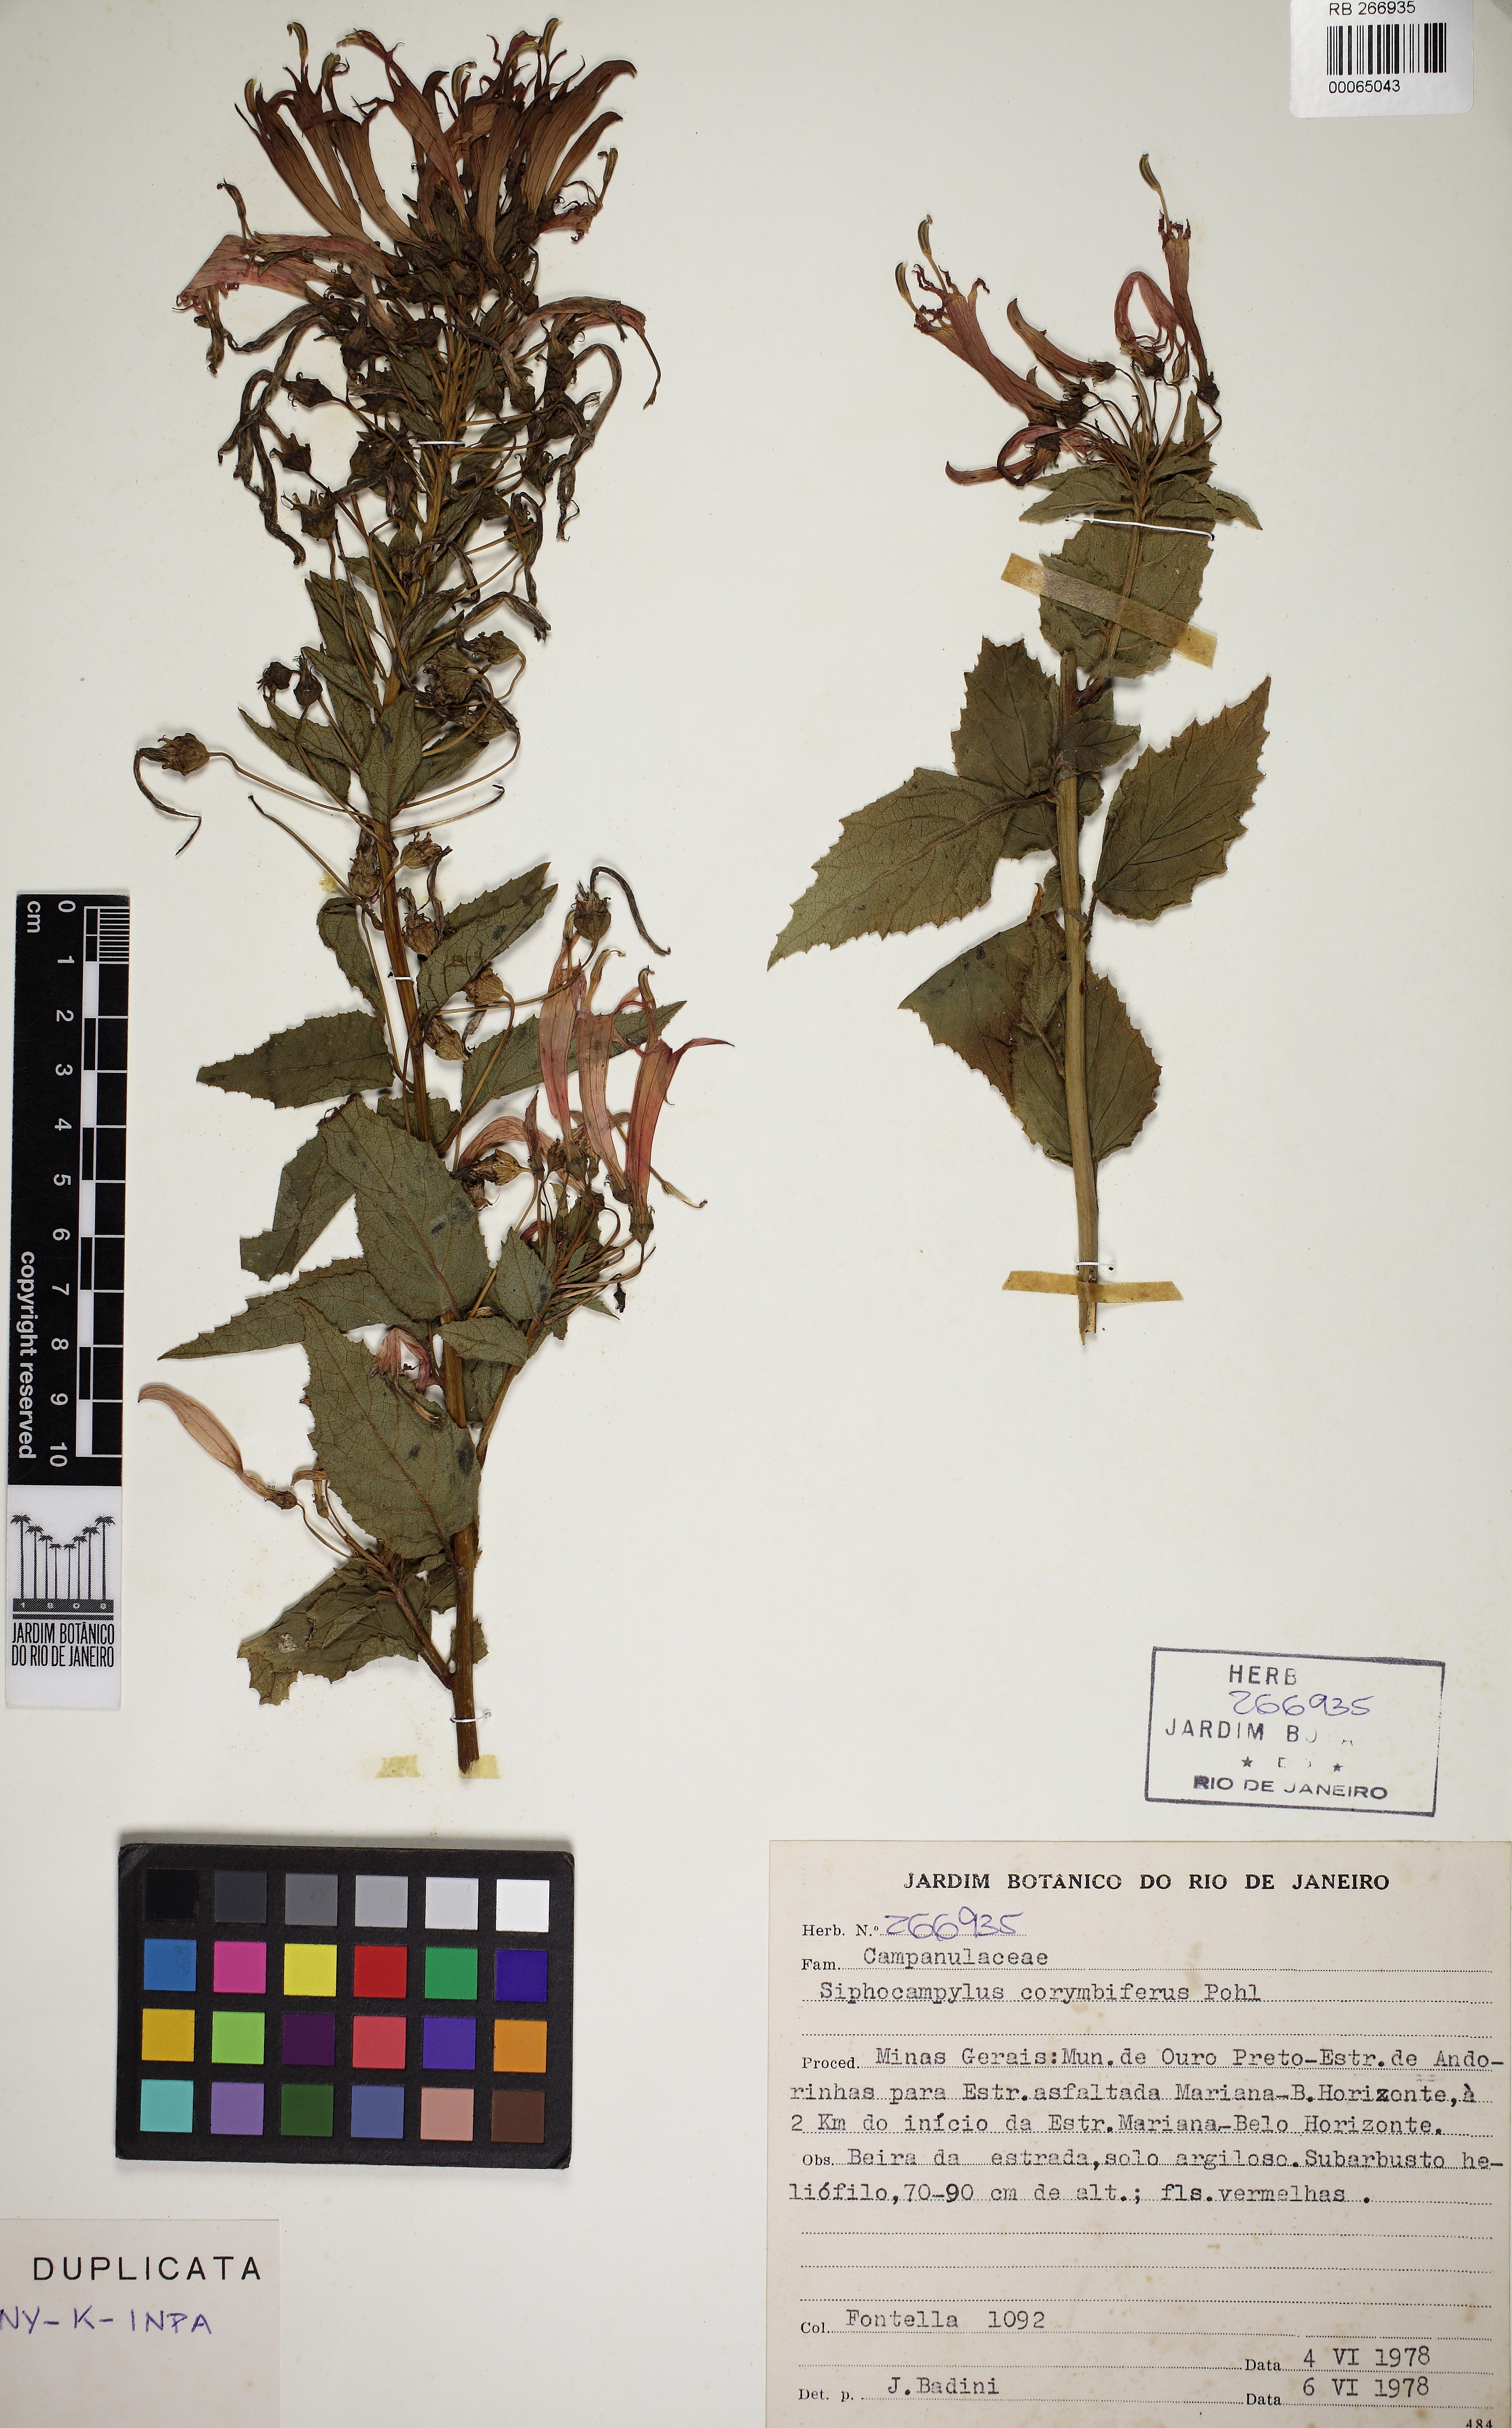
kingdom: Plantae
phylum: Tracheophyta
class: Magnoliopsida
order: Asterales
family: Campanulaceae
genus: Siphocampylus
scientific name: Siphocampylus corymbiferus
